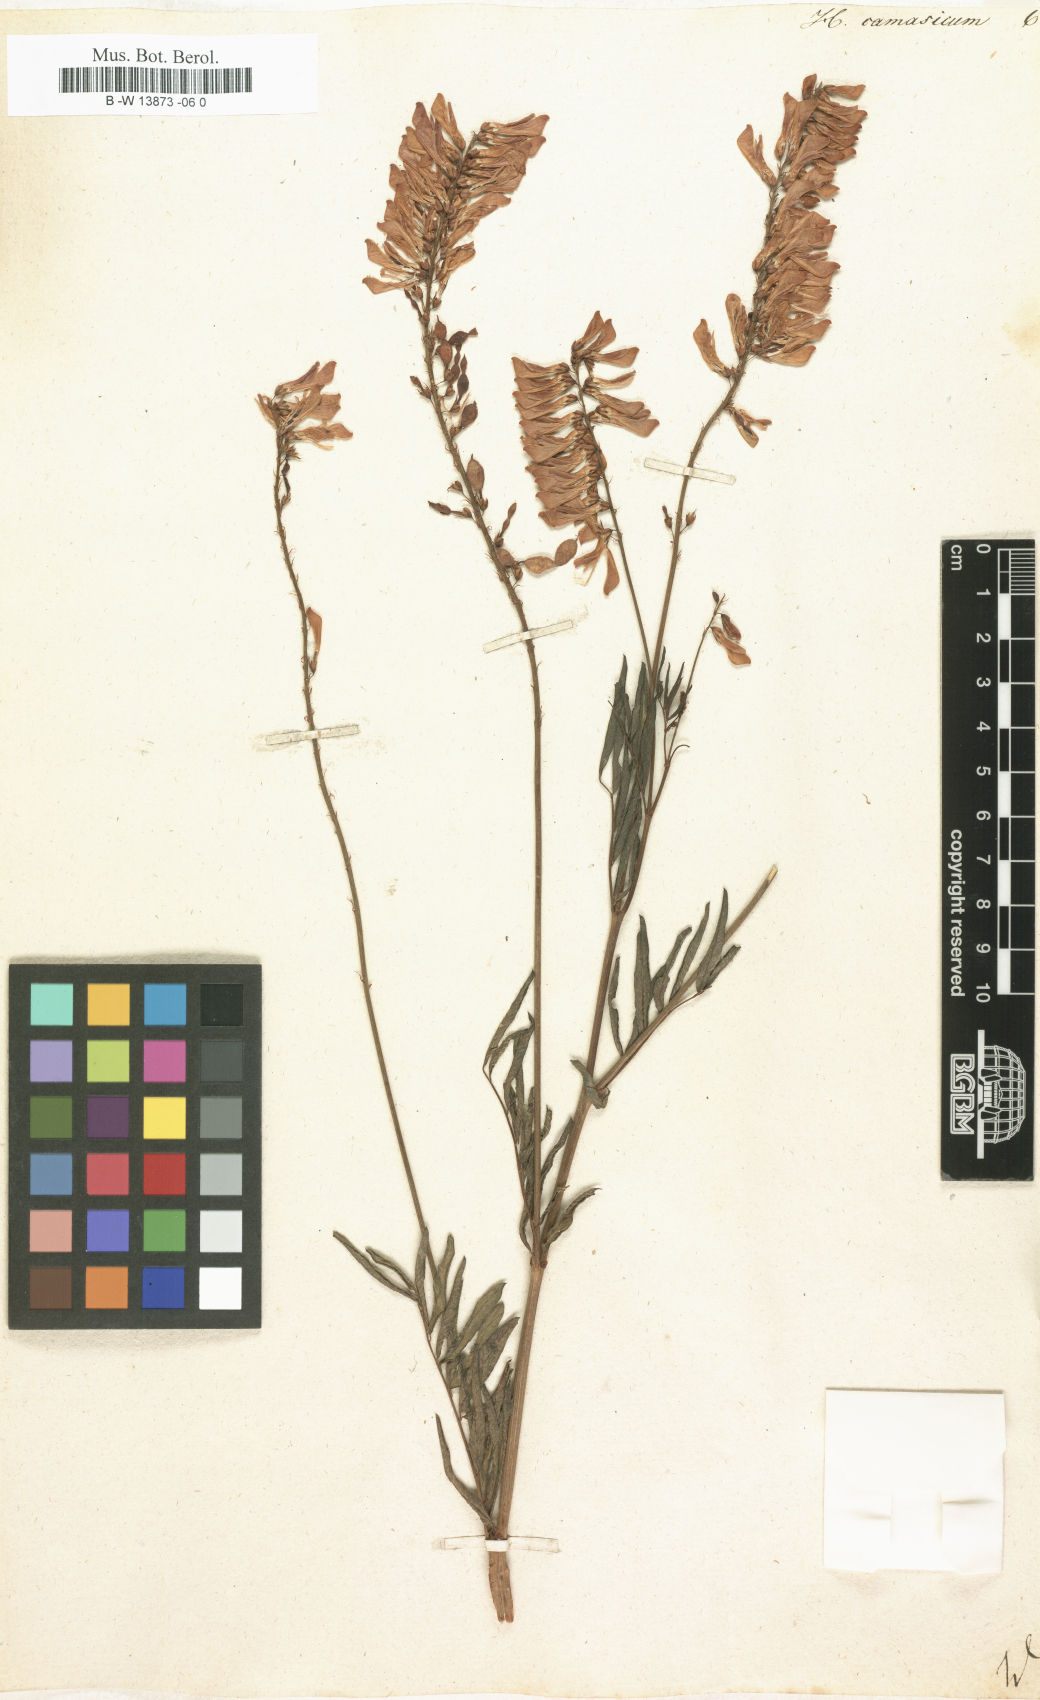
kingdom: Plantae
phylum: Tracheophyta
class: Magnoliopsida
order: Fabales
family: Fabaceae
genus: Hedysarum
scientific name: Hedysarum caucasicum
